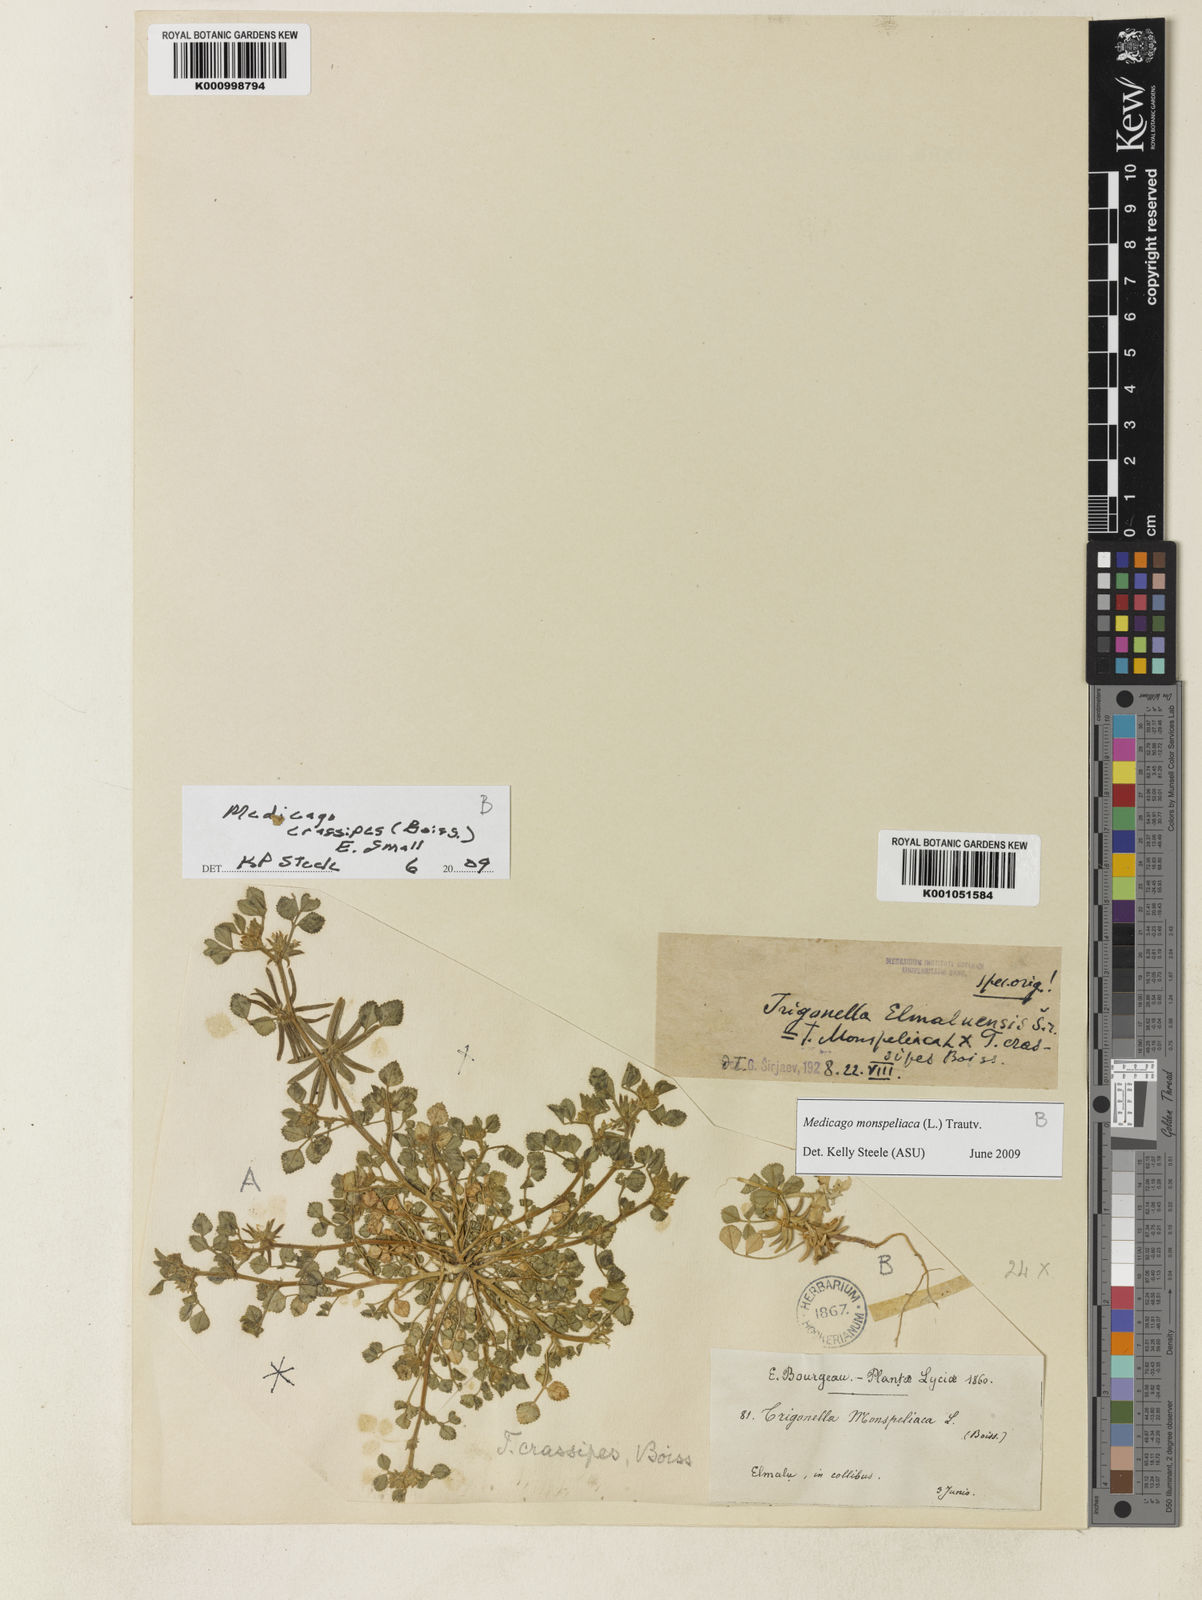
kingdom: Plantae
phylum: Tracheophyta
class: Magnoliopsida
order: Fabales
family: Fabaceae
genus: Medicago
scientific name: Medicago crassipes
